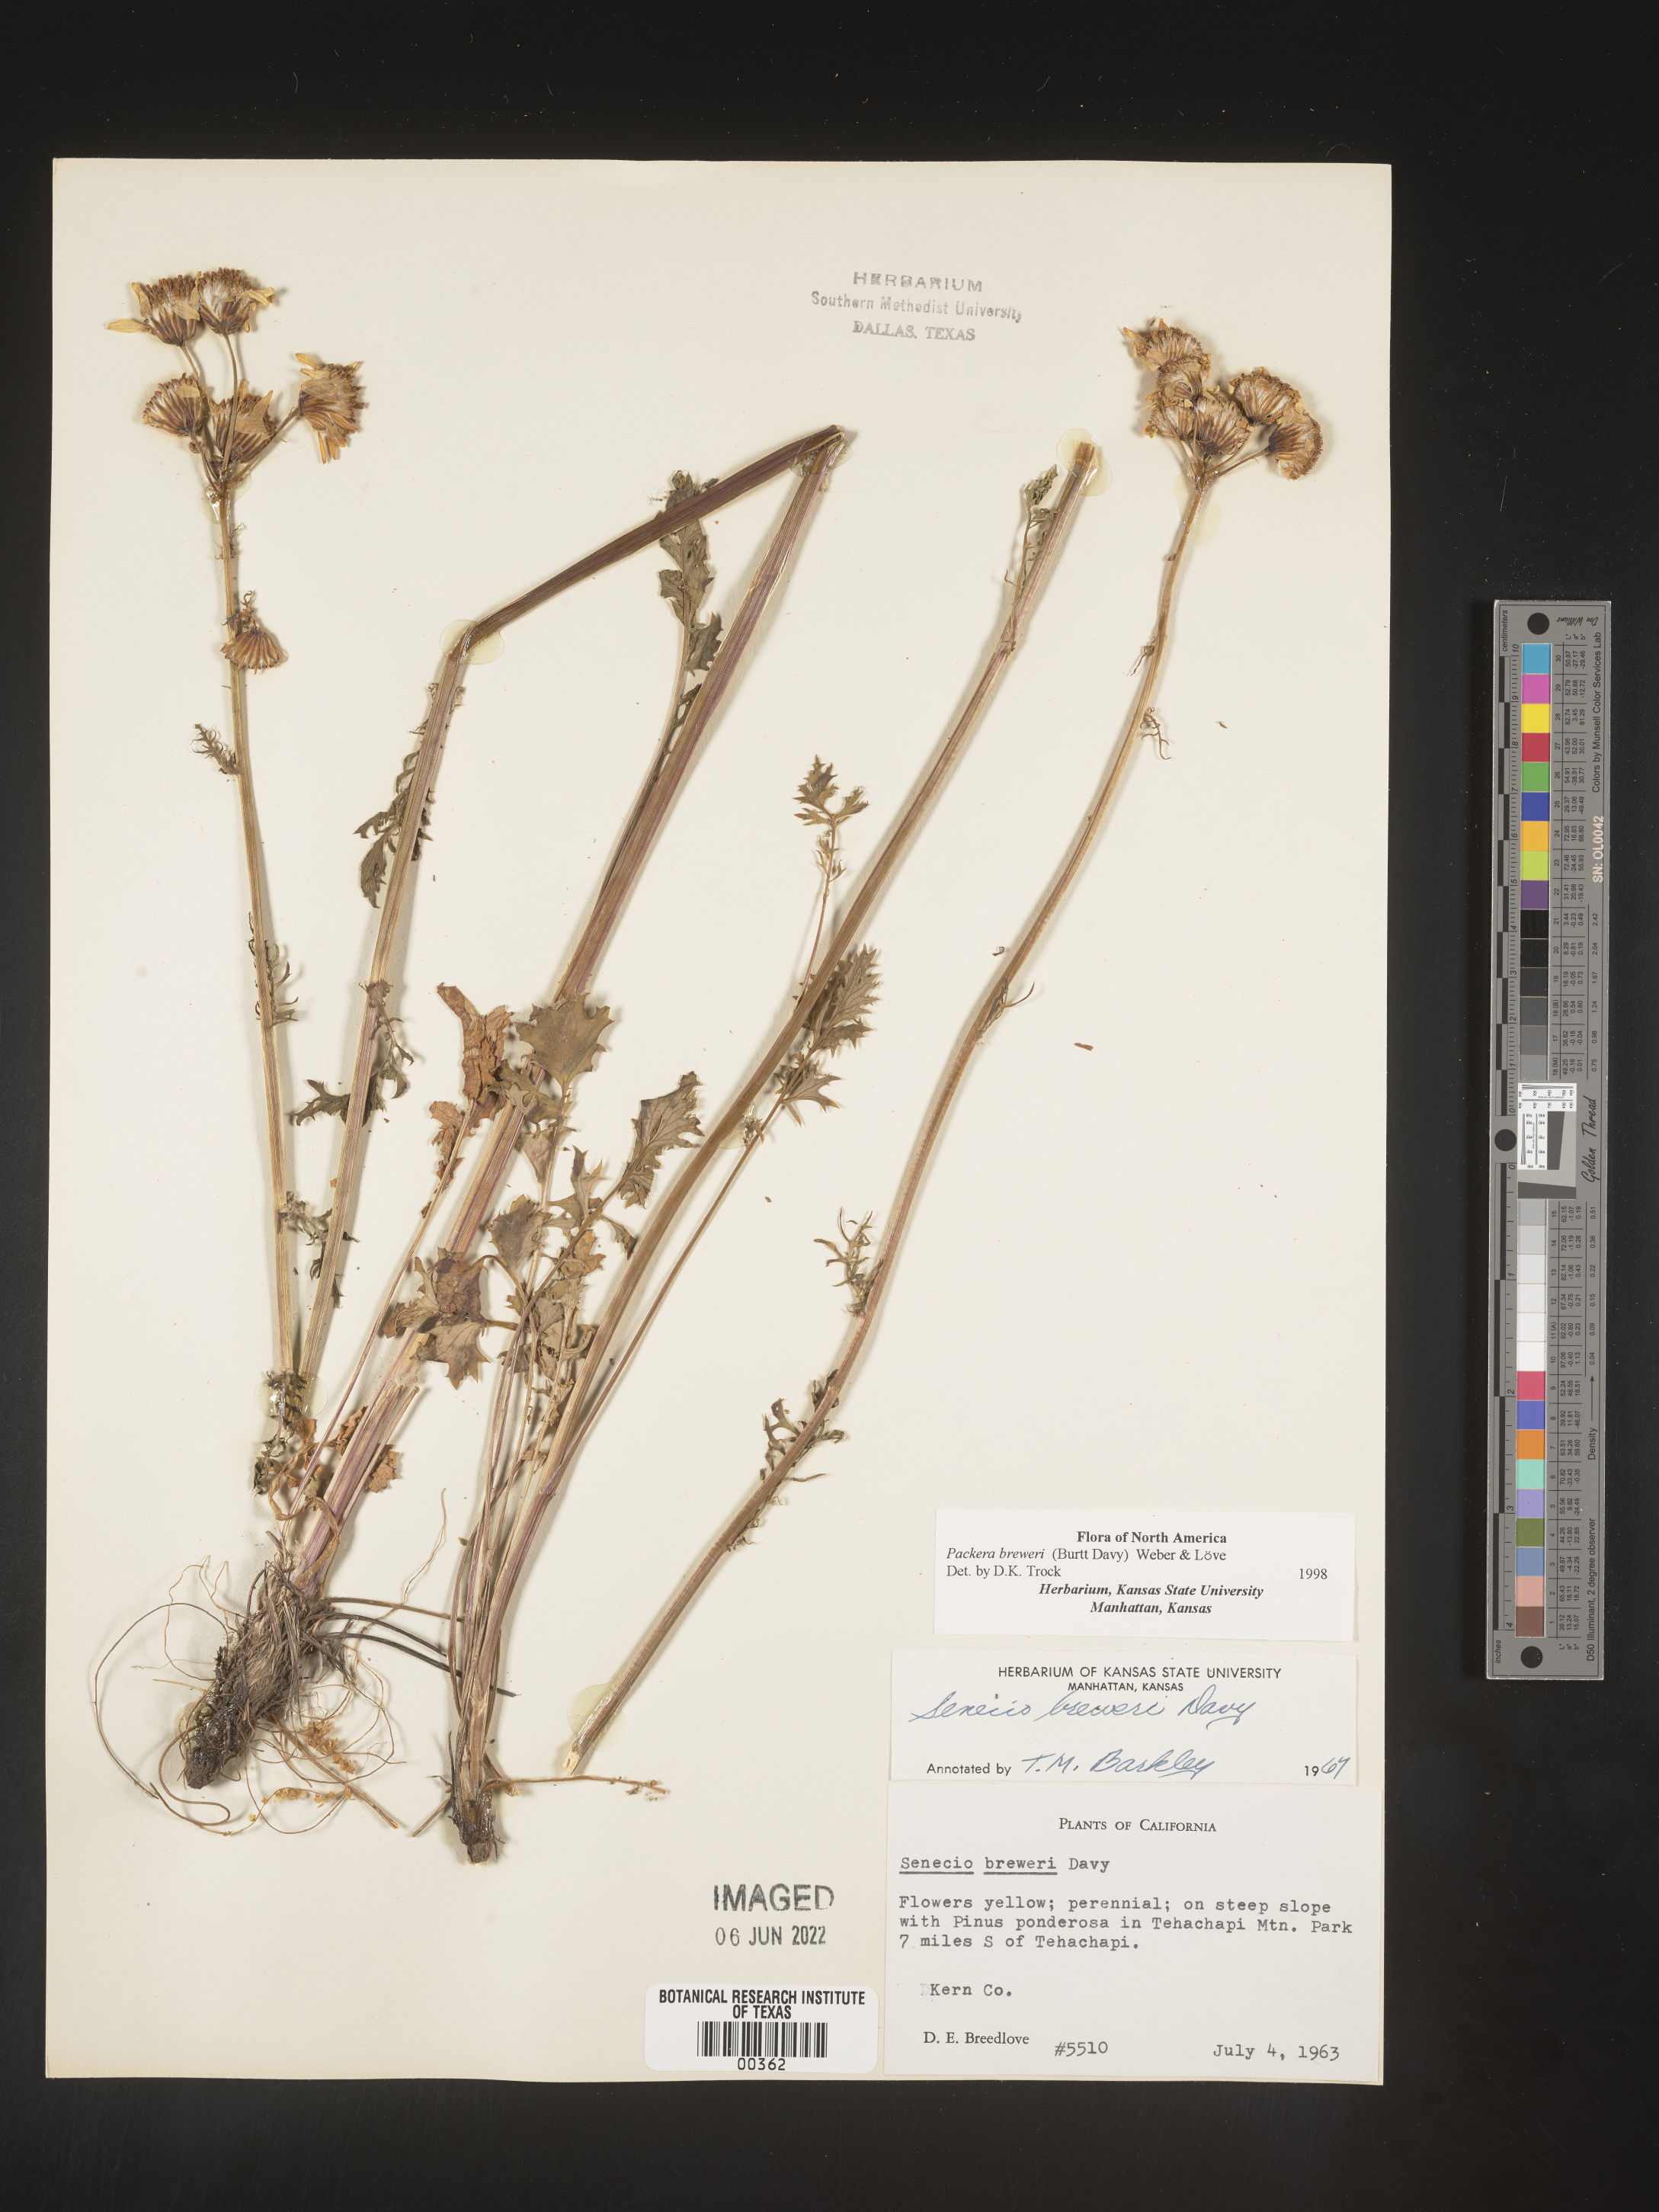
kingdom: Plantae
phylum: Tracheophyta
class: Magnoliopsida
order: Asterales
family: Asteraceae
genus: Packera
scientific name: Packera breweri
